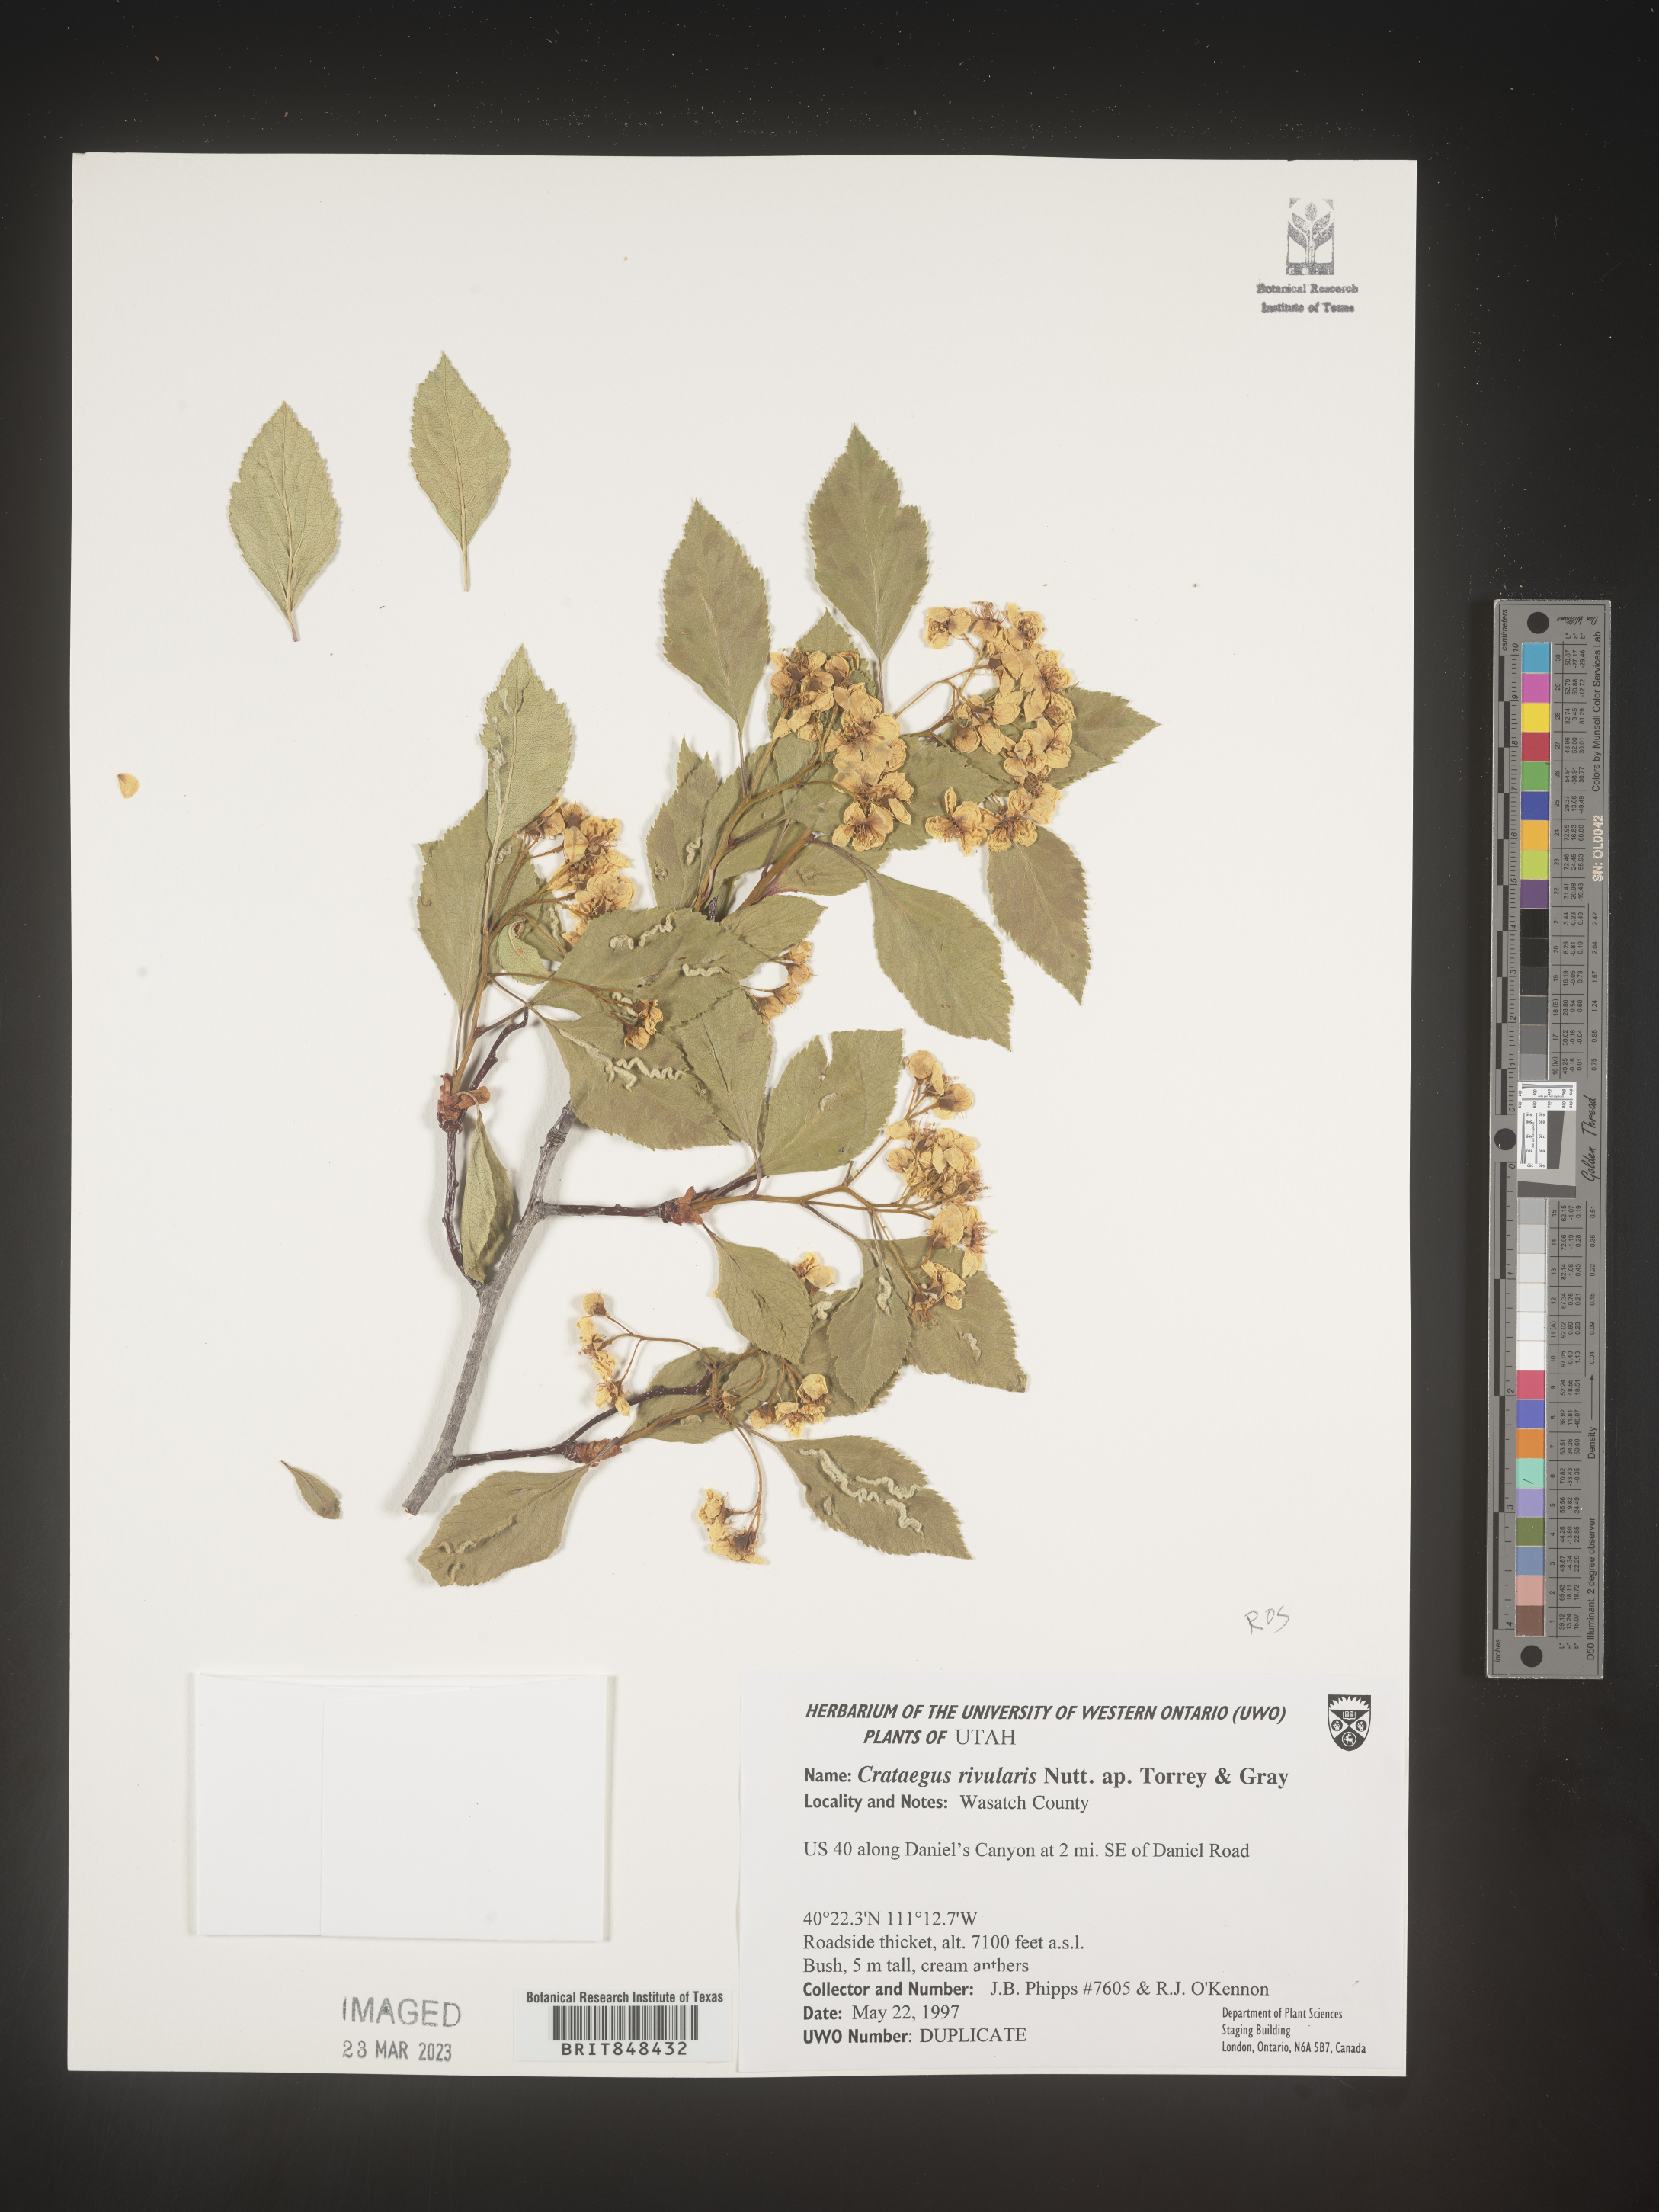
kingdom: Plantae
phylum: Tracheophyta
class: Magnoliopsida
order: Rosales
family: Rosaceae
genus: Crataegus
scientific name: Crataegus rivalis
